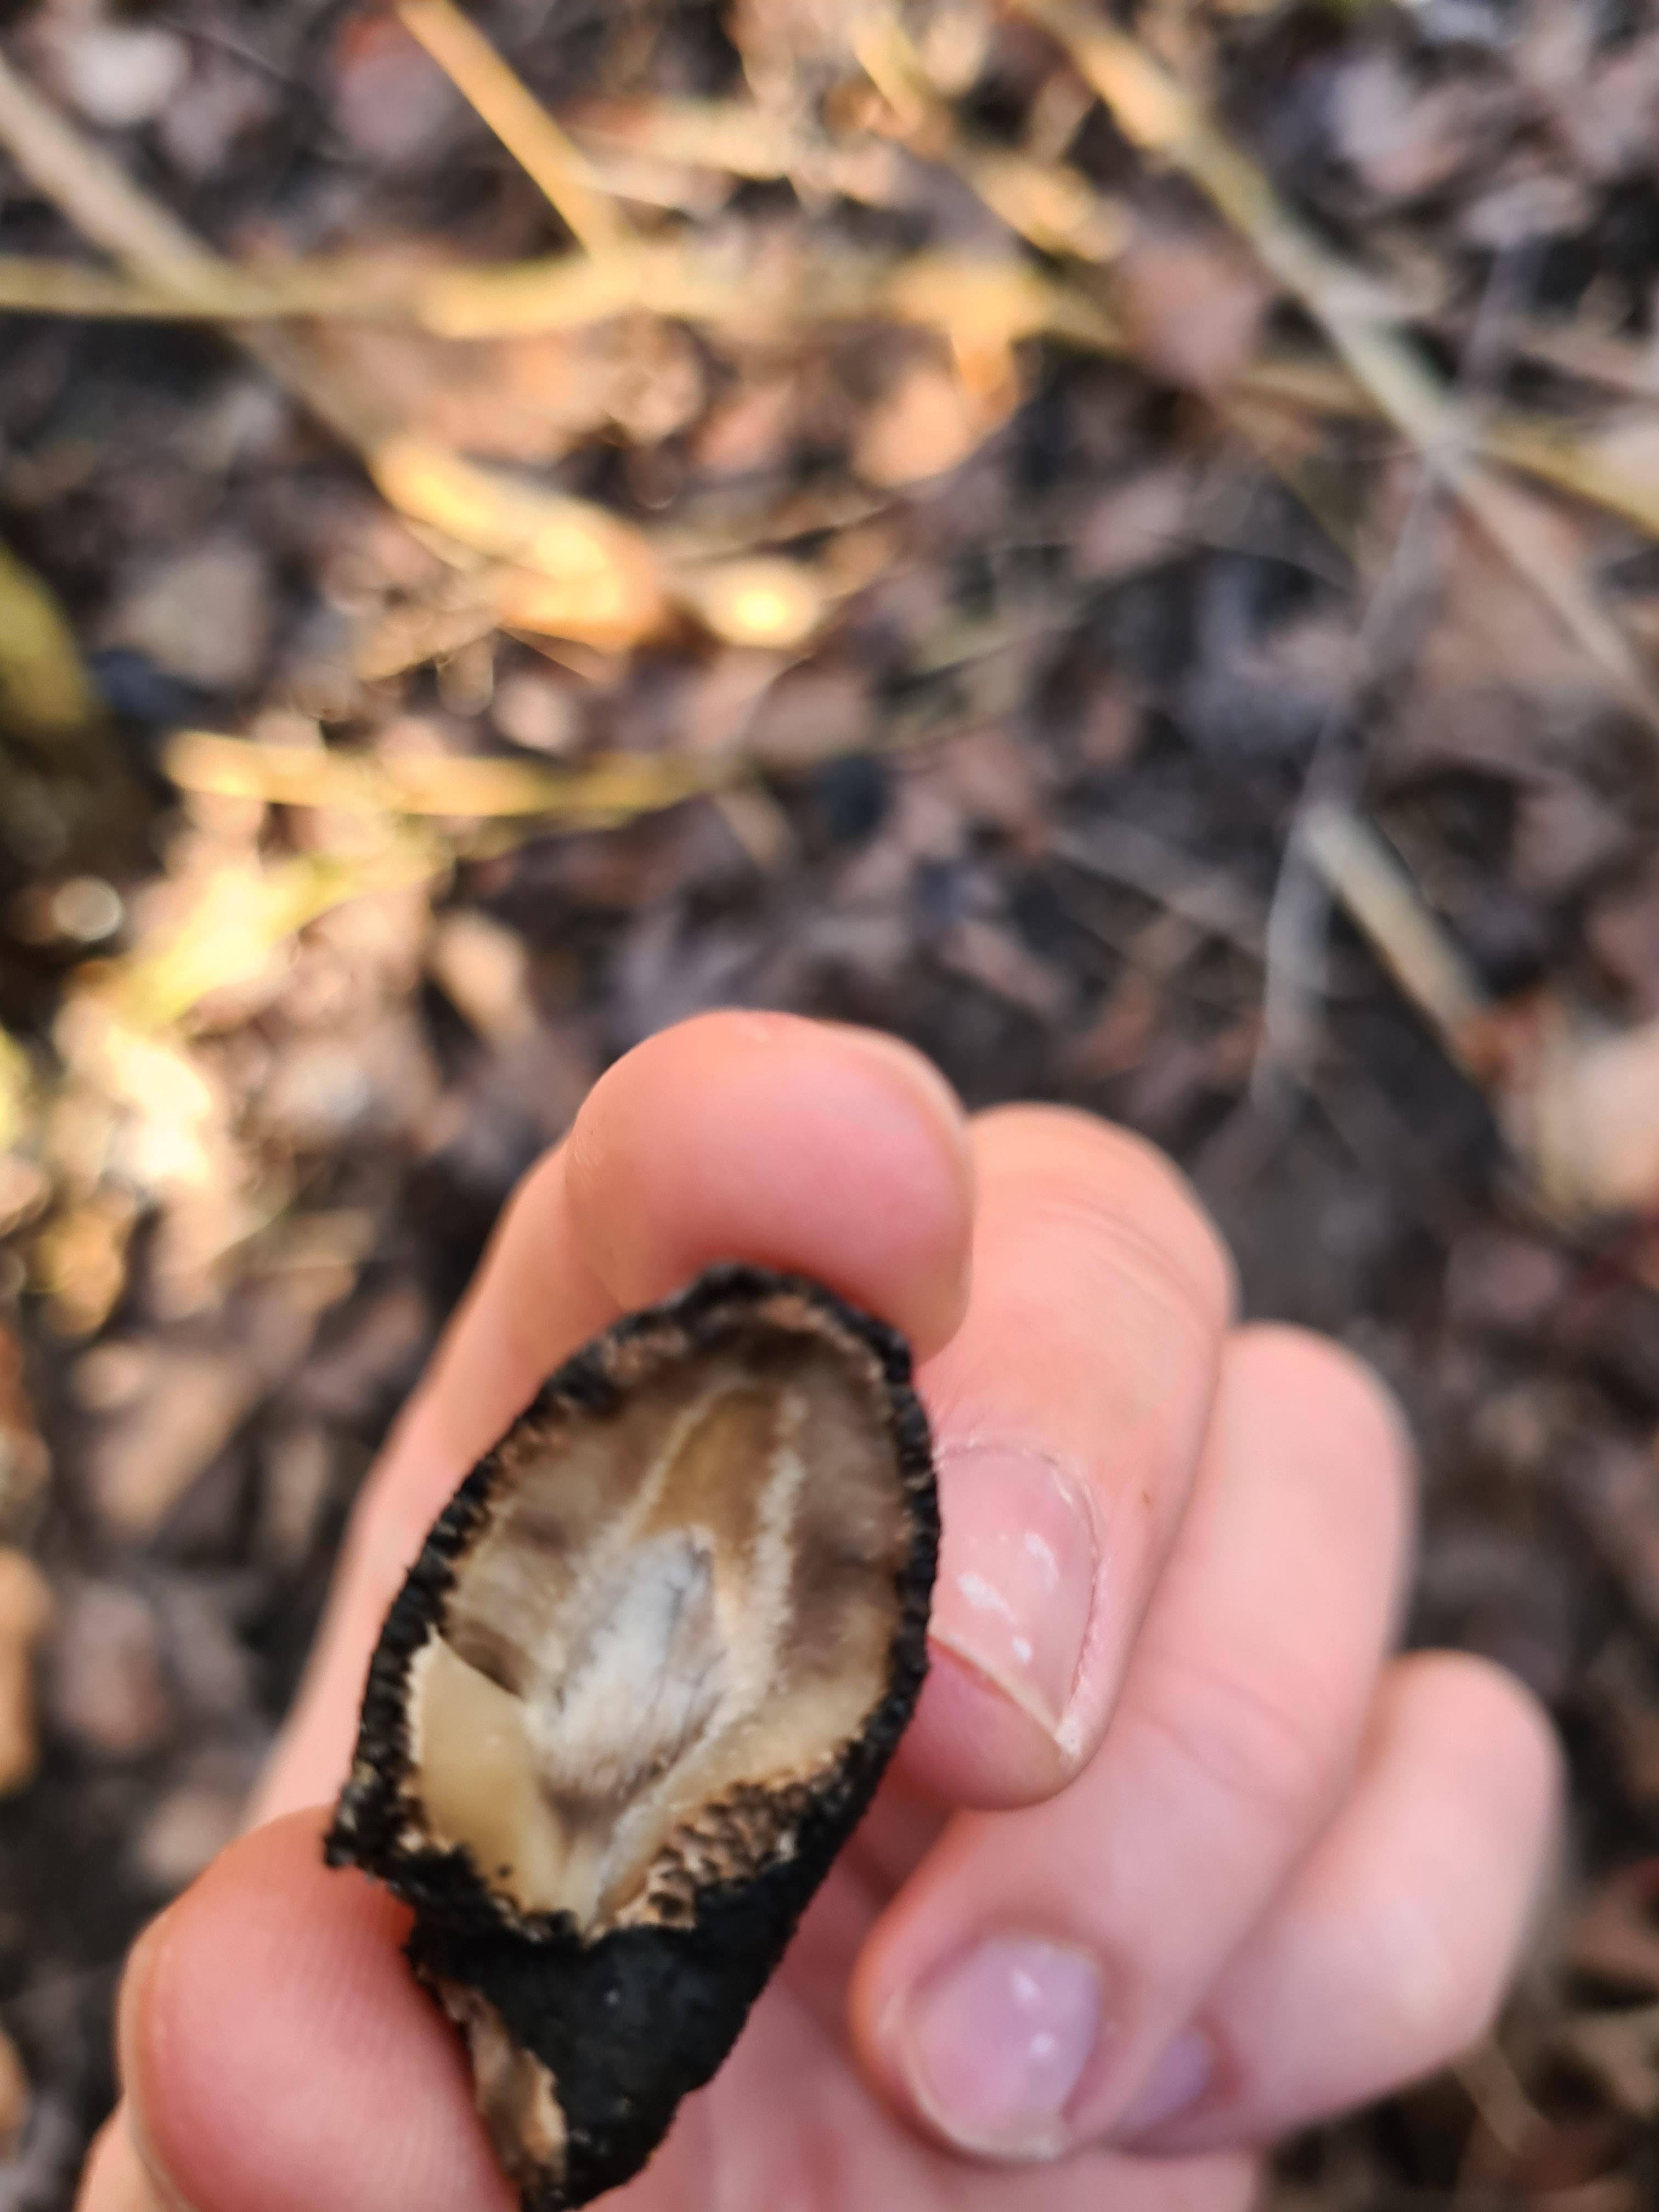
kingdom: Fungi
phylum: Ascomycota
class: Sordariomycetes
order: Xylariales
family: Xylariaceae
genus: Xylaria
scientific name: Xylaria polymorpha
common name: kølle-stødsvamp
